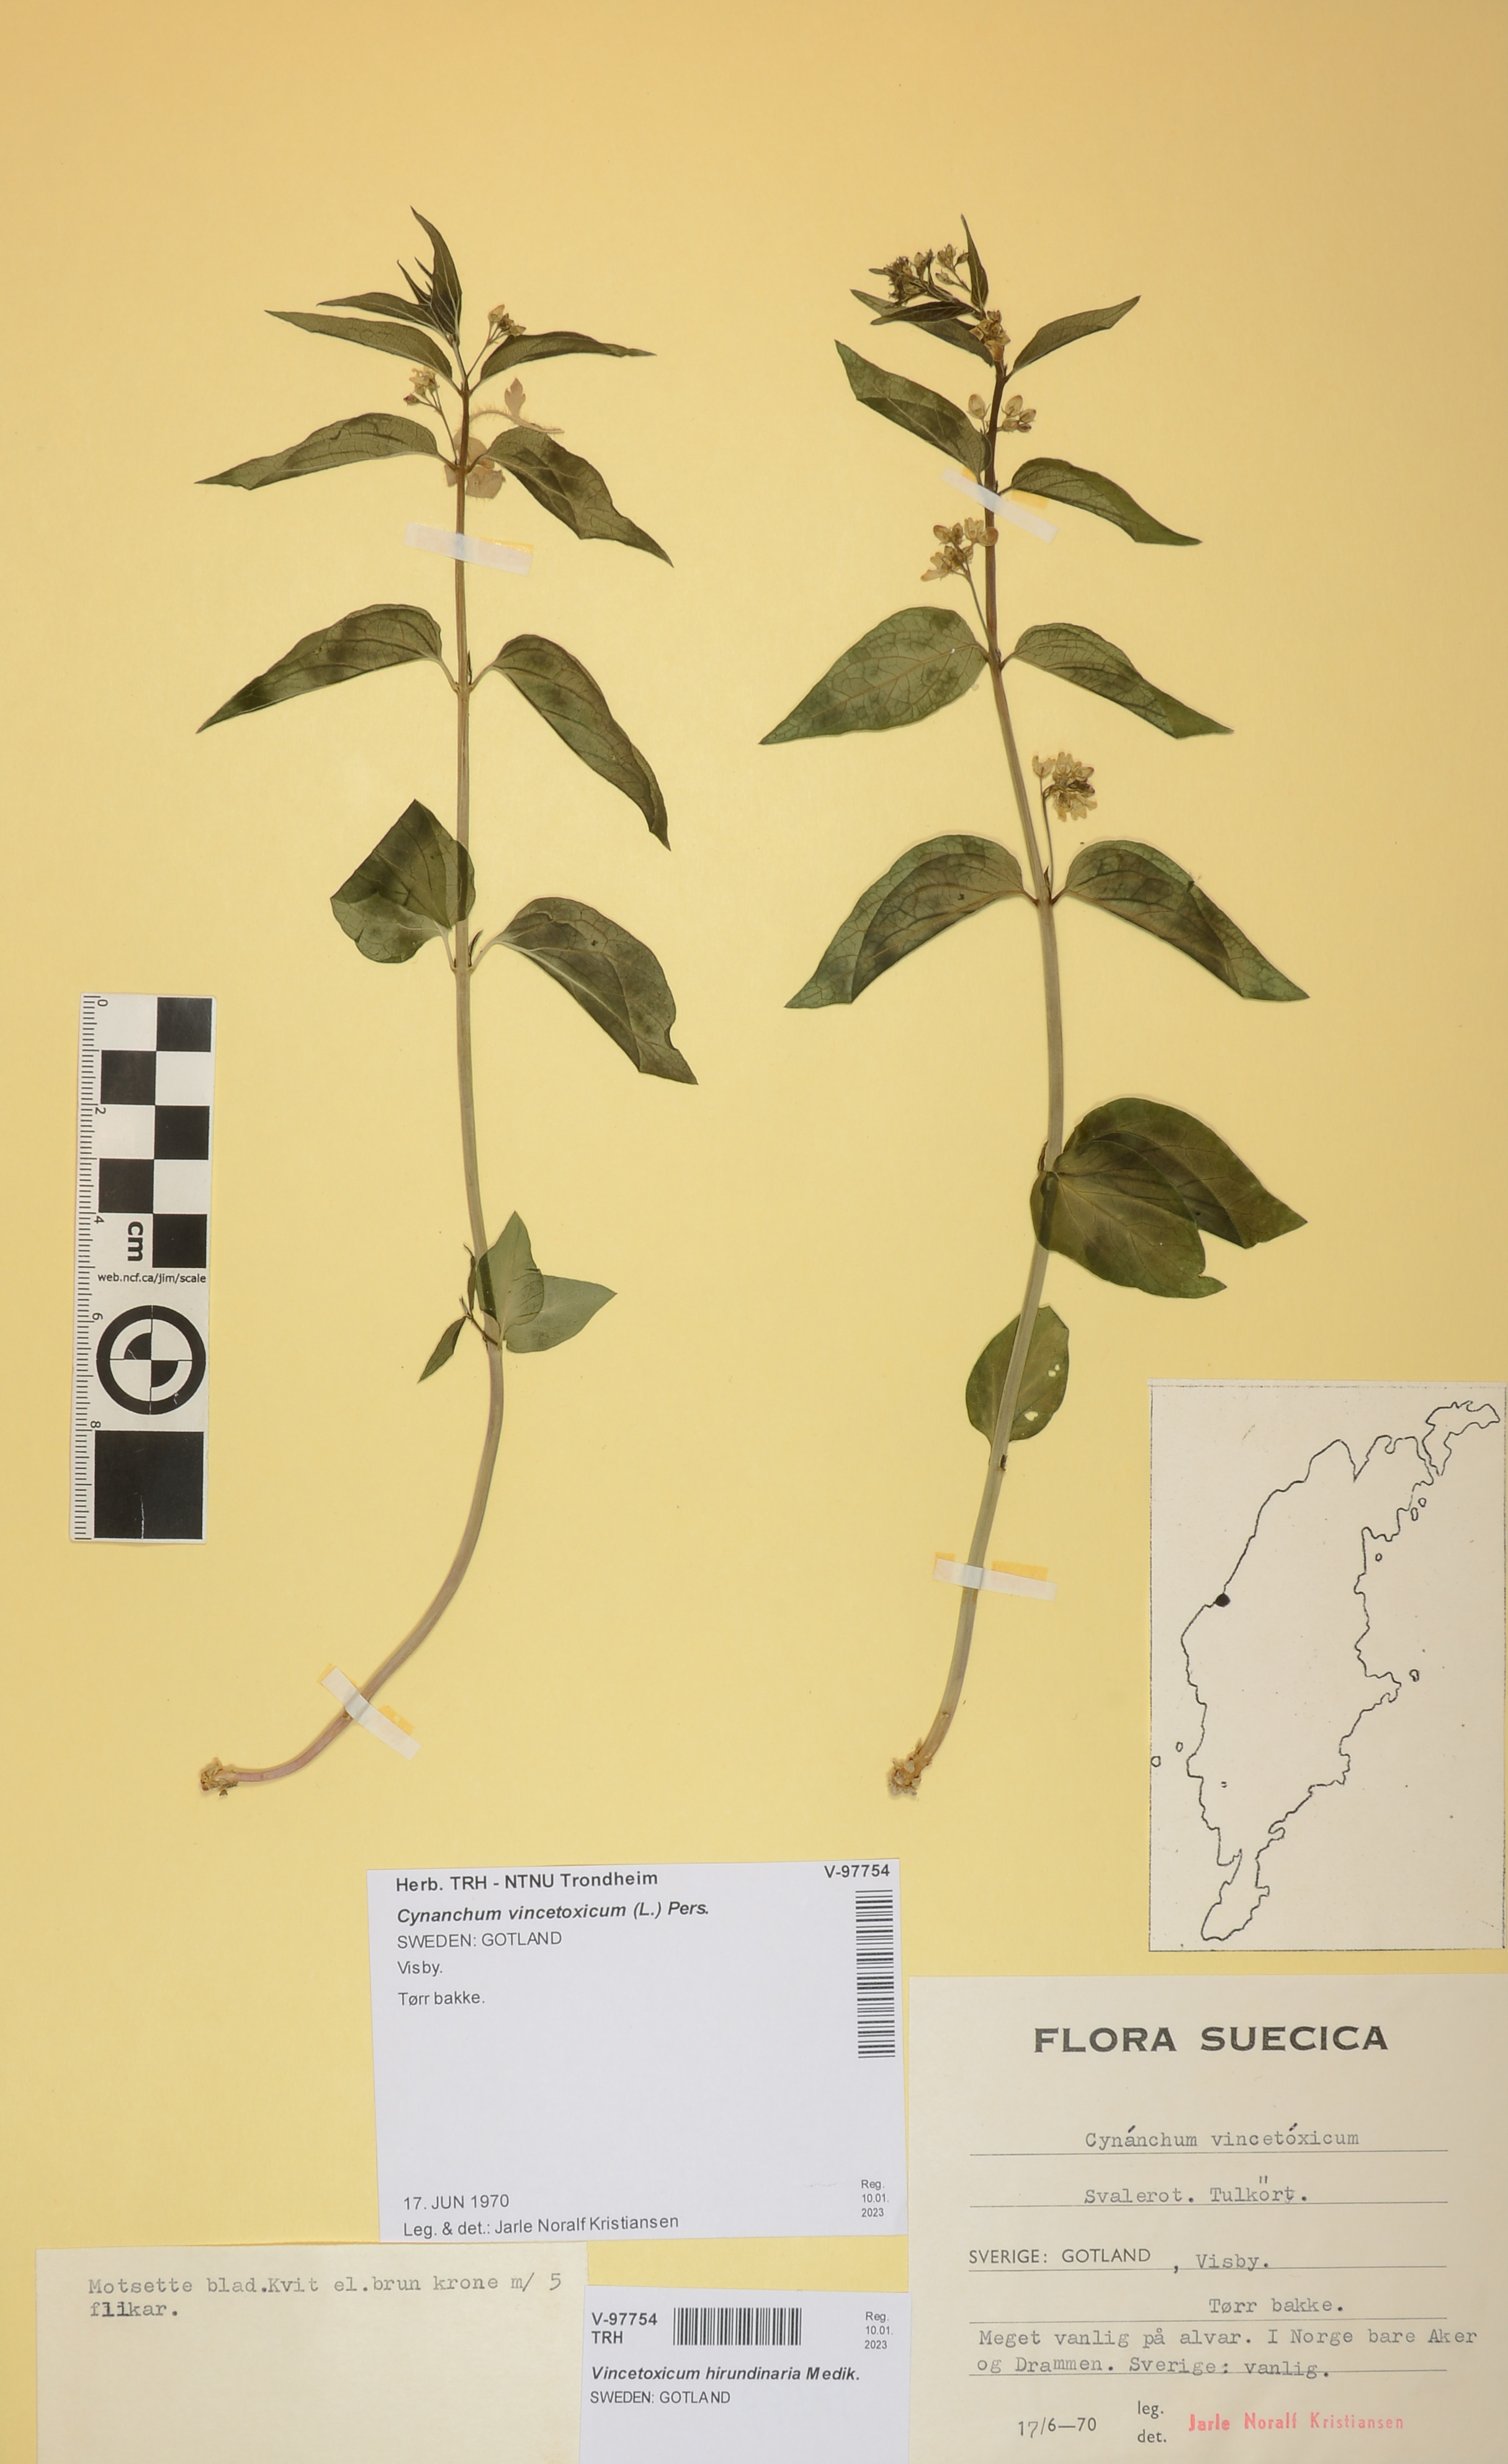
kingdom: Plantae
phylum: Tracheophyta
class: Magnoliopsida
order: Gentianales
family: Apocynaceae
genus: Vincetoxicum
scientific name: Vincetoxicum hirundinaria
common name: White swallowwort
